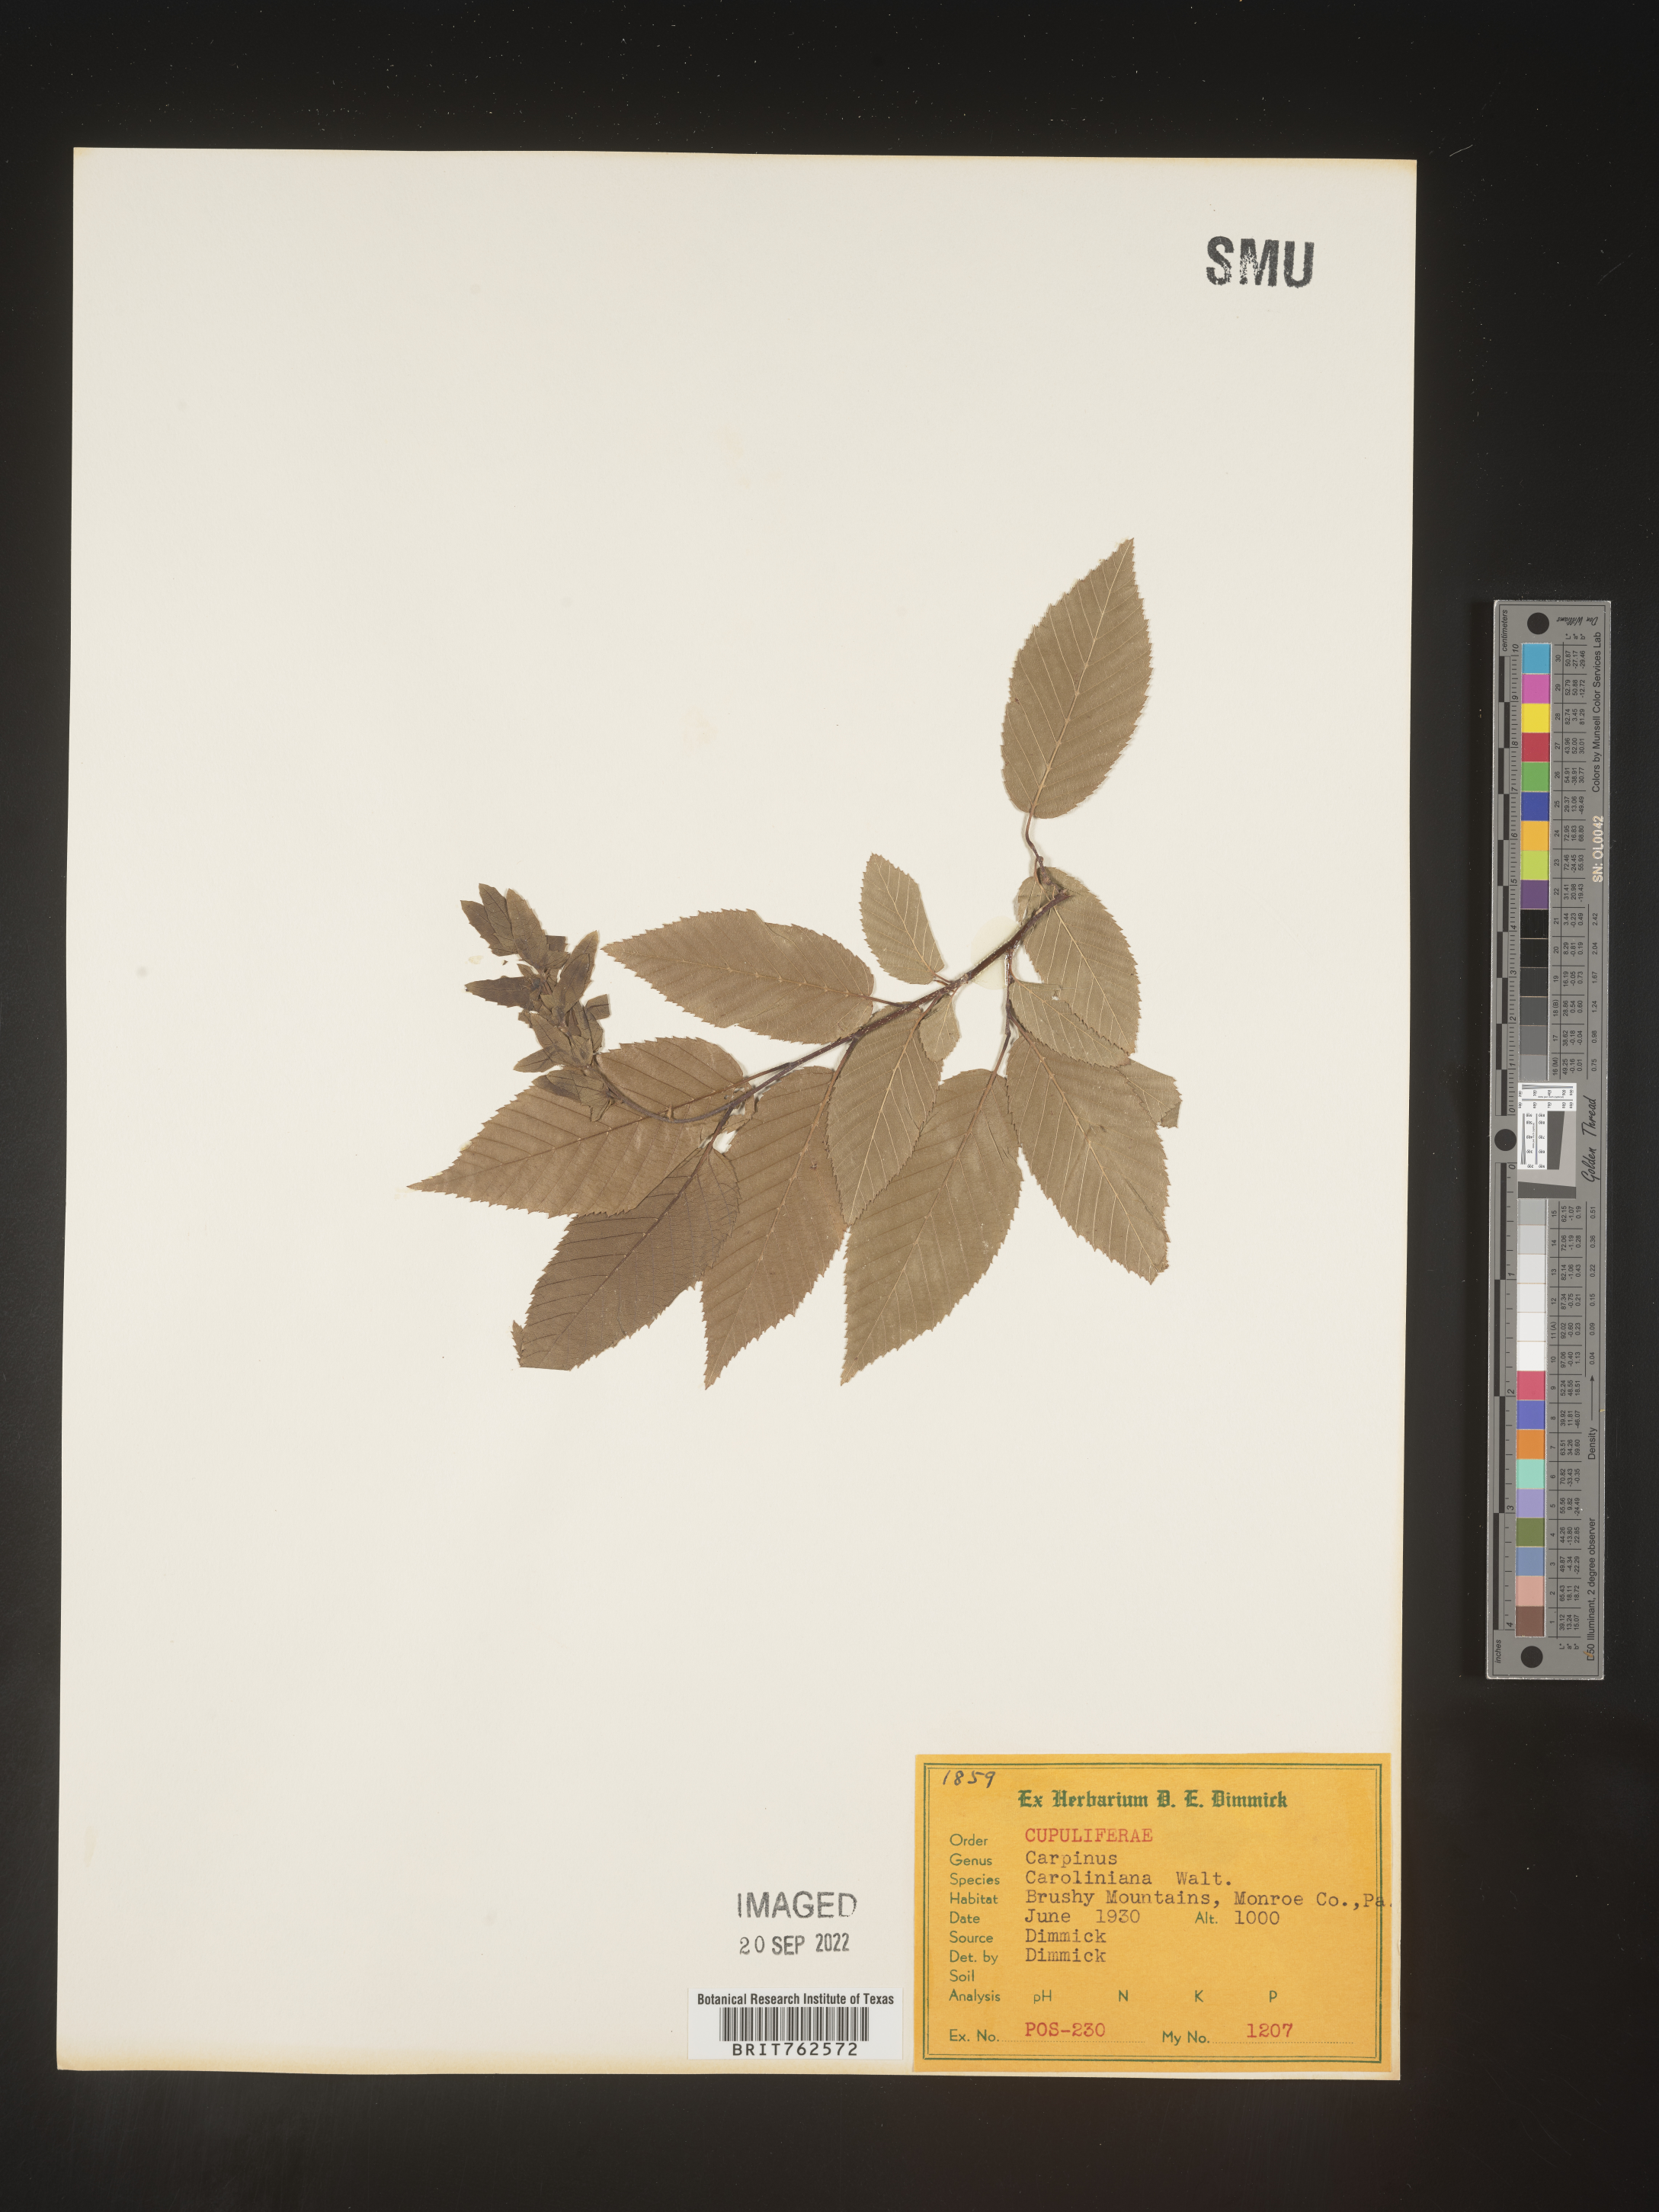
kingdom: Plantae
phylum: Tracheophyta
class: Magnoliopsida
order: Fagales
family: Betulaceae
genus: Carpinus
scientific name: Carpinus caroliniana
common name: American hornbeam
